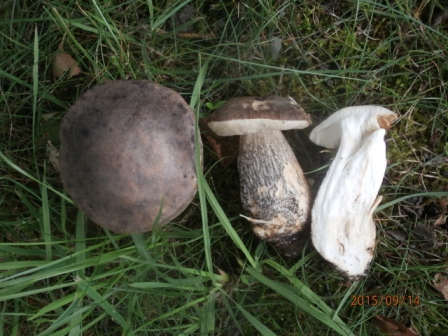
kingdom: Fungi
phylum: Basidiomycota
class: Agaricomycetes
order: Boletales
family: Boletaceae
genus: Leccinum
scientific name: Leccinum scabrum
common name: brun skælrørhat
